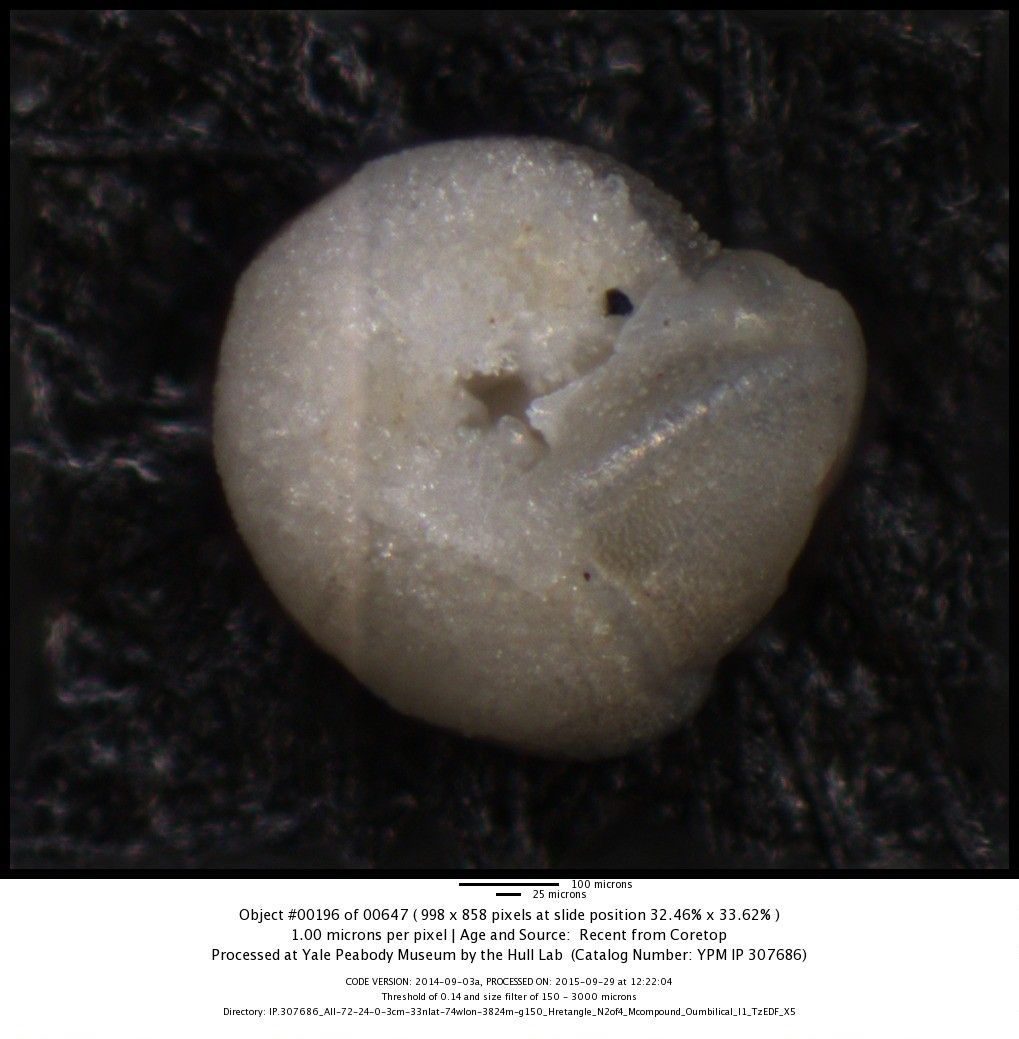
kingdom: Chromista
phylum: Foraminifera
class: Globothalamea
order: Rotaliida
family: Globorotaliidae
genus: Globorotalia
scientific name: Globorotalia truncatulinoides
